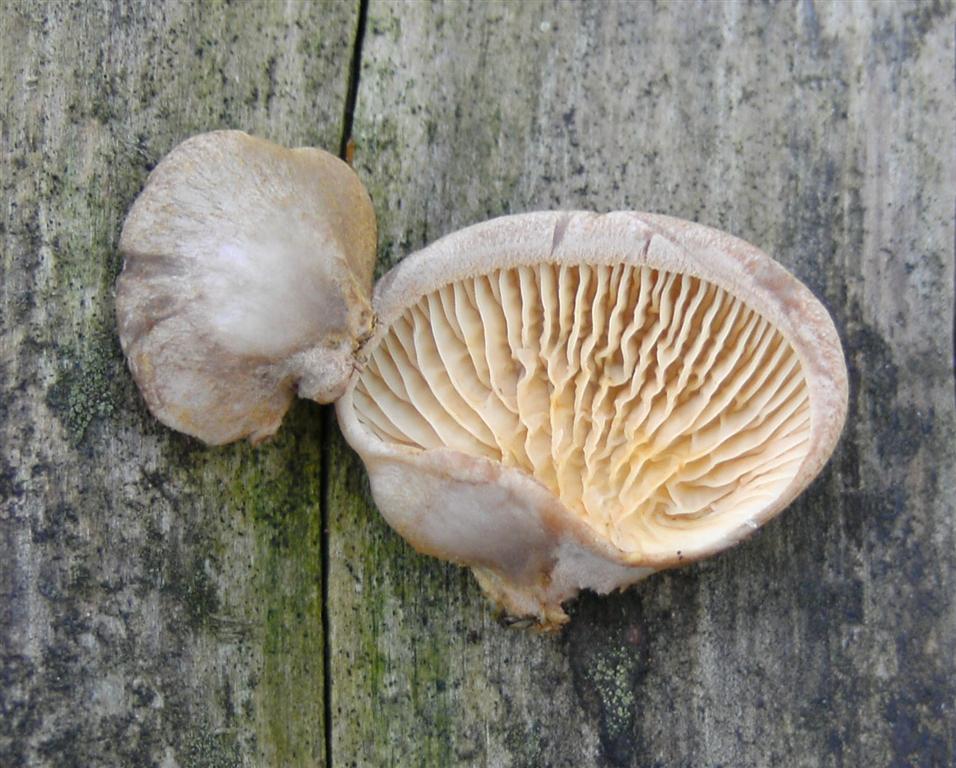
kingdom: Fungi
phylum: Basidiomycota
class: Agaricomycetes
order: Boletales
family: Tapinellaceae
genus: Tapinella
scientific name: Tapinella panuoides
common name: tømmer-viftesvamp
